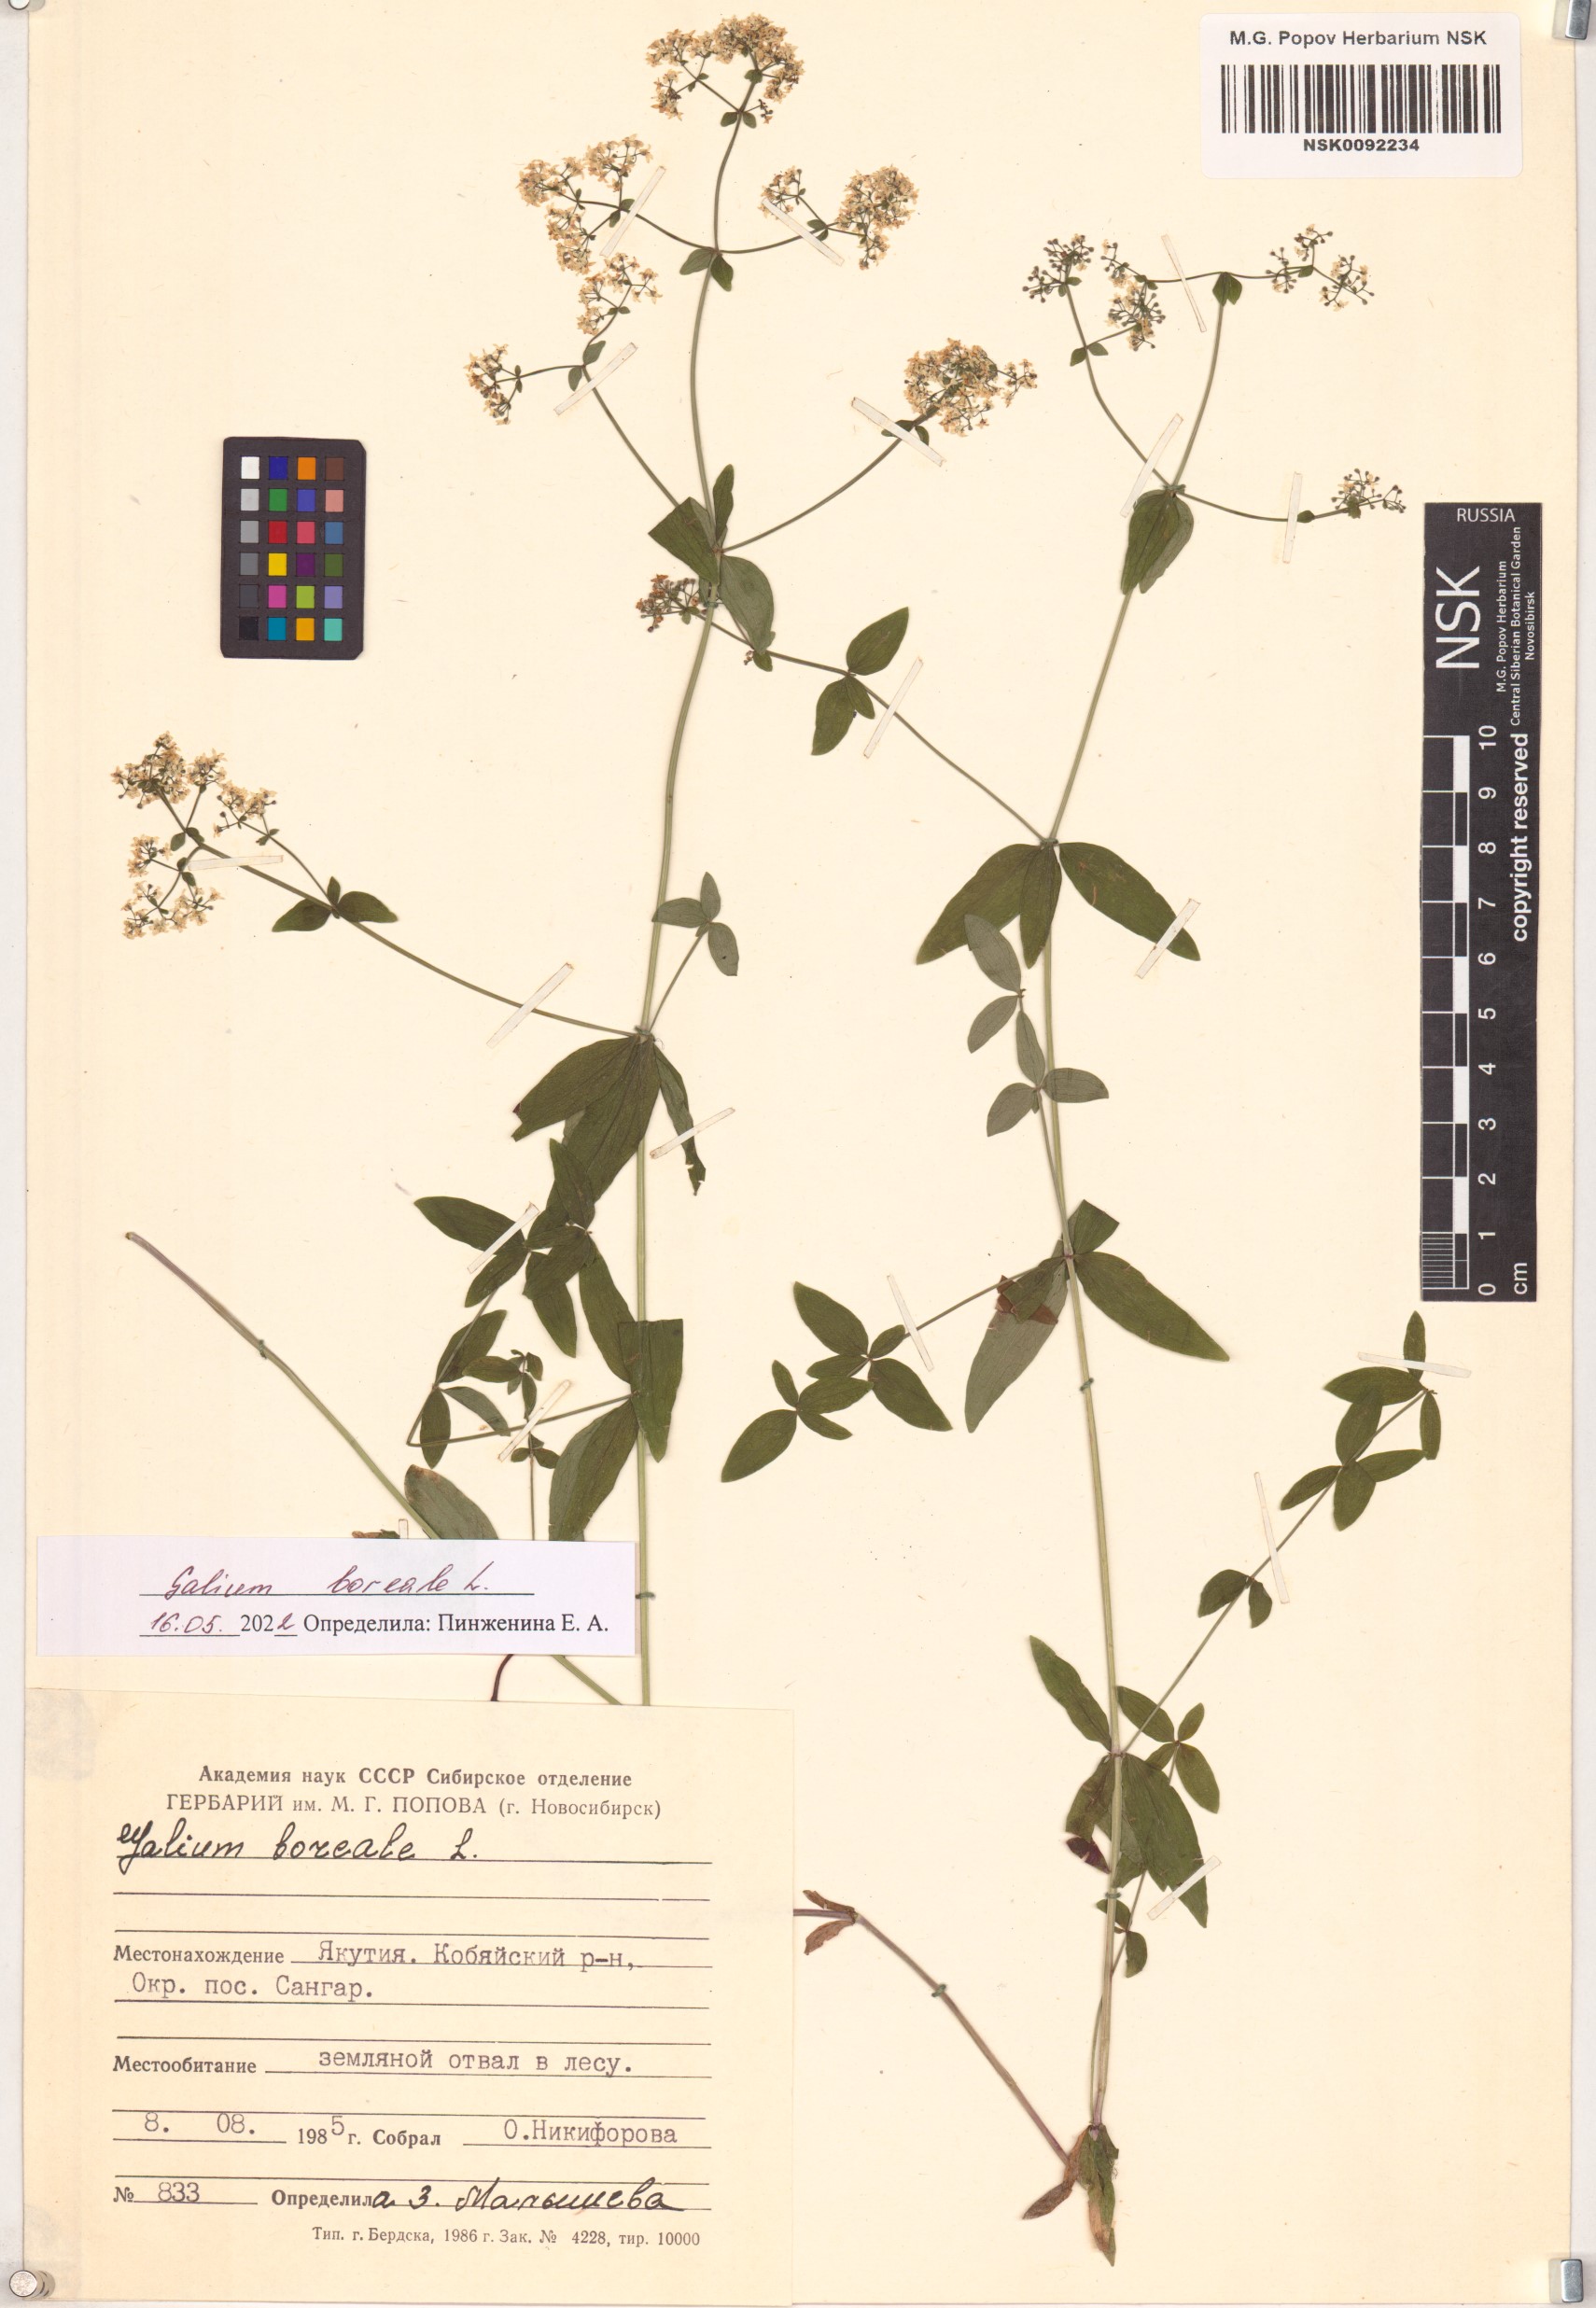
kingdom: Plantae
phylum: Tracheophyta
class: Magnoliopsida
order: Gentianales
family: Rubiaceae
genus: Galium
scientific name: Galium boreale
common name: Northern bedstraw
